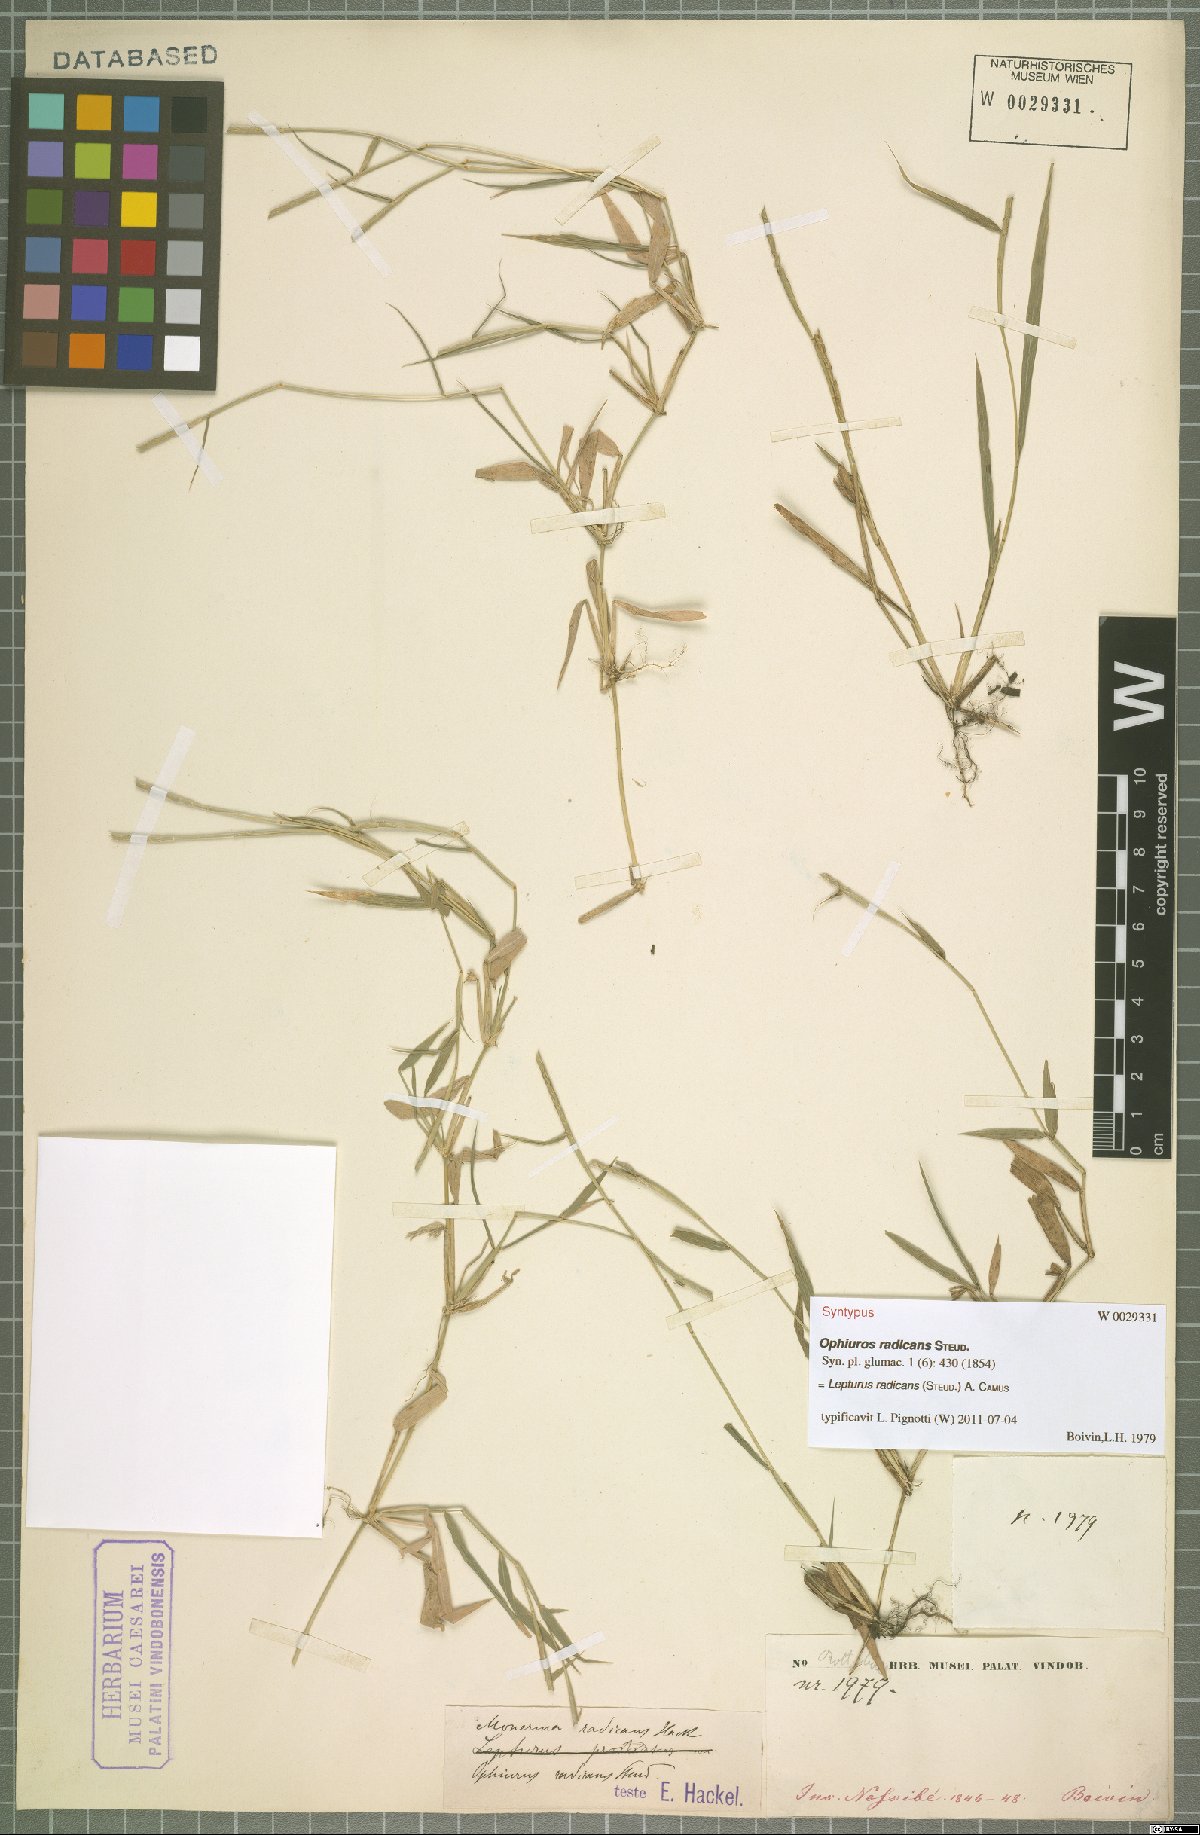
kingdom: Plantae
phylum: Tracheophyta
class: Liliopsida
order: Poales
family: Poaceae
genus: Lepturus
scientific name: Lepturus radicans
